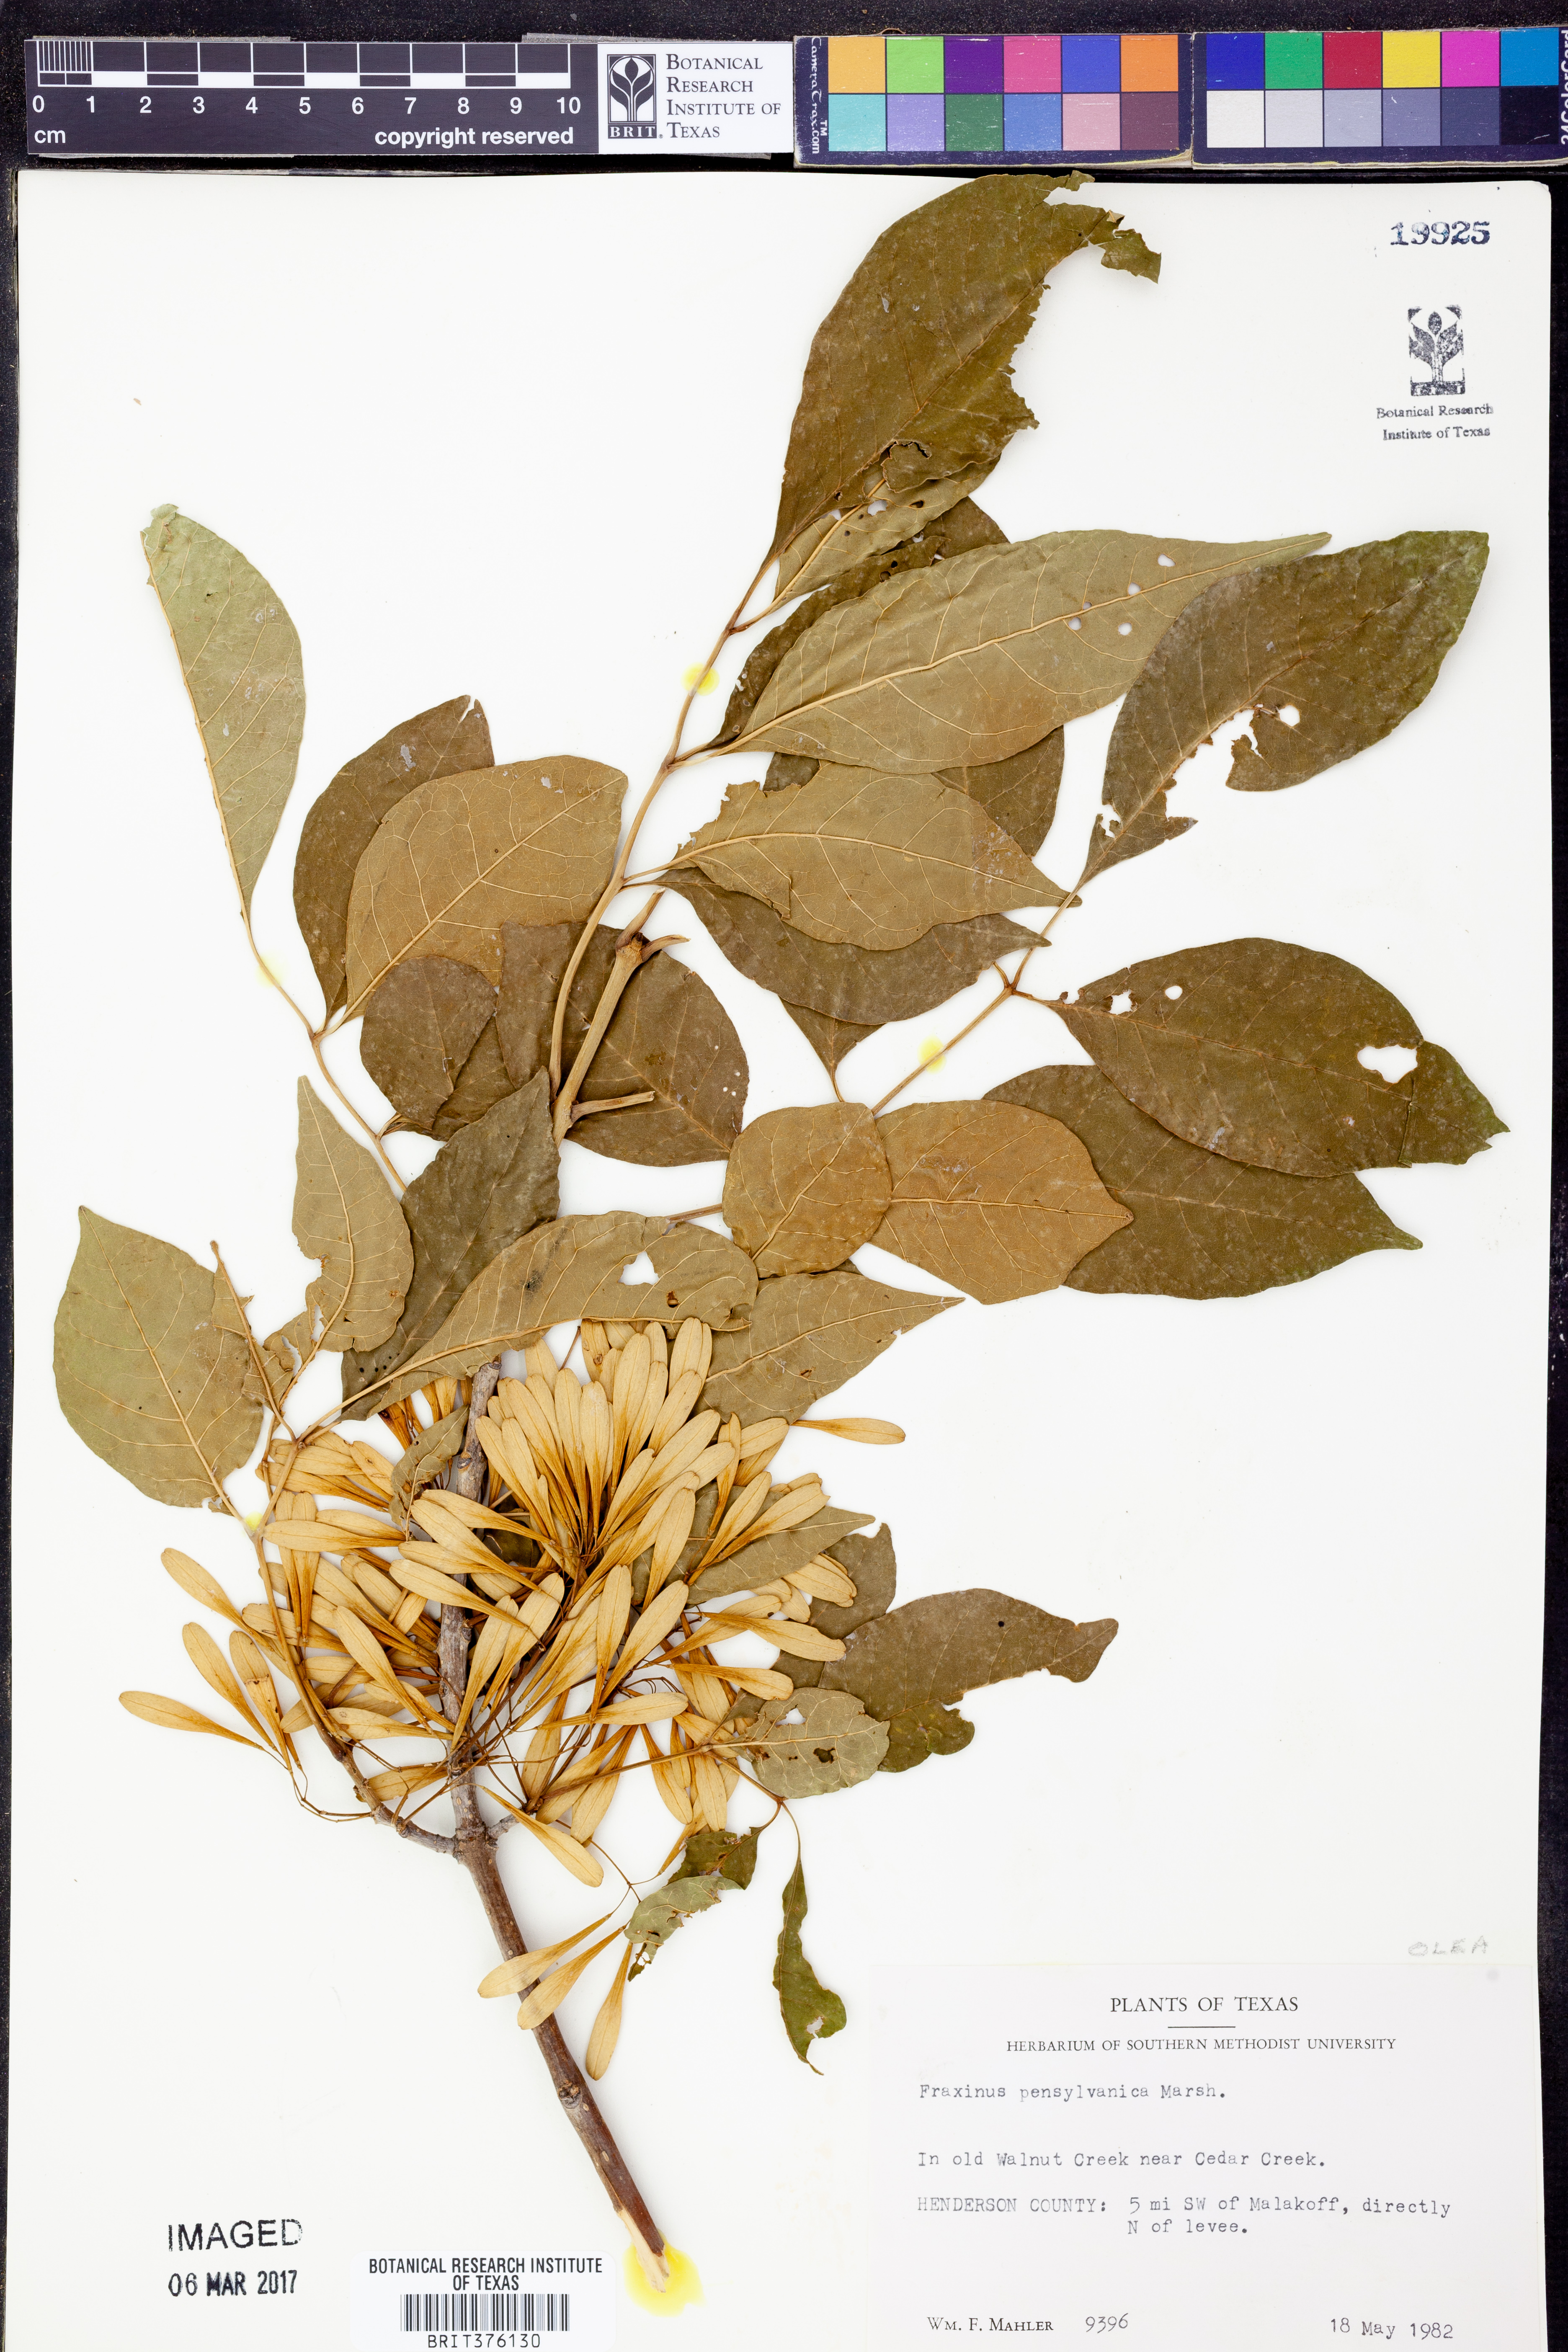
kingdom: Plantae
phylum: Tracheophyta
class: Magnoliopsida
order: Lamiales
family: Oleaceae
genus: Fraxinus
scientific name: Fraxinus pennsylvanica
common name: Green ash
